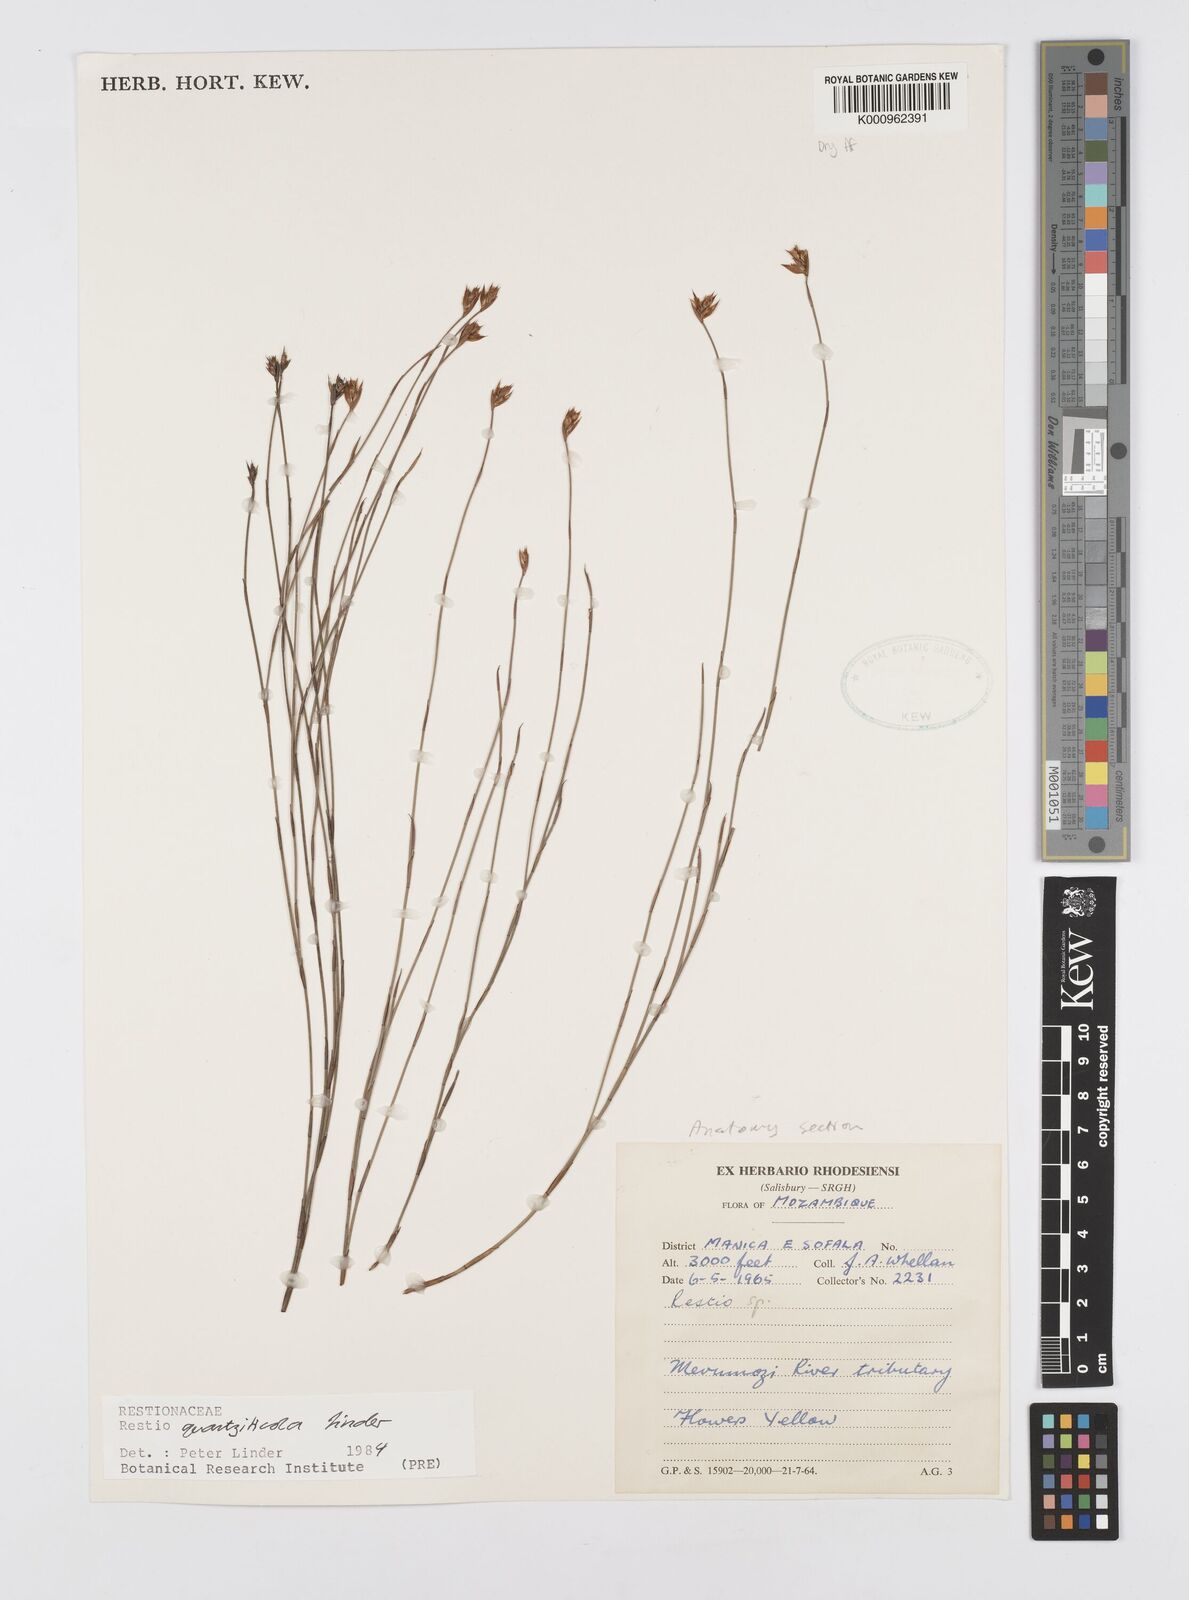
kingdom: Plantae
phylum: Tracheophyta
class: Liliopsida
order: Poales
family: Restionaceae
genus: Platycaulos
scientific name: Platycaulos quartziticola
